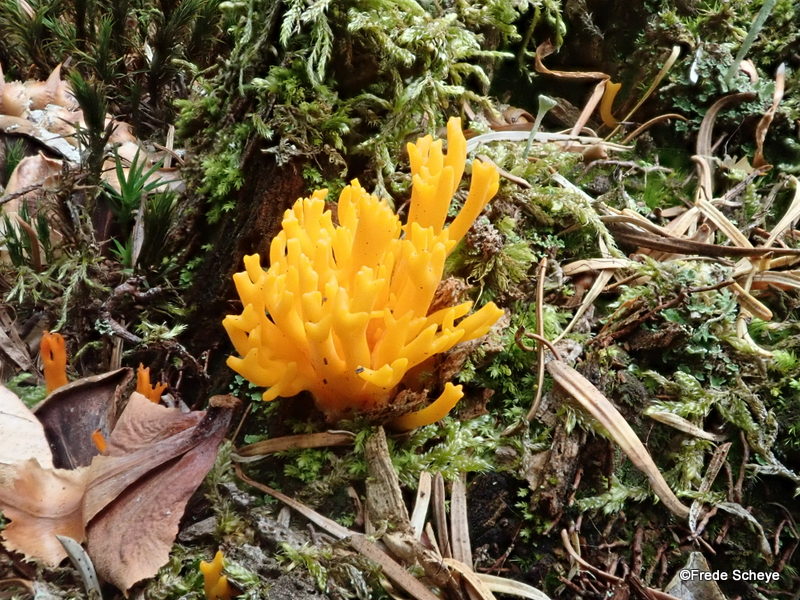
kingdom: Fungi
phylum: Basidiomycota
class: Dacrymycetes
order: Dacrymycetales
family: Dacrymycetaceae
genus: Calocera
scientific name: Calocera viscosa
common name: almindelig guldgaffel
